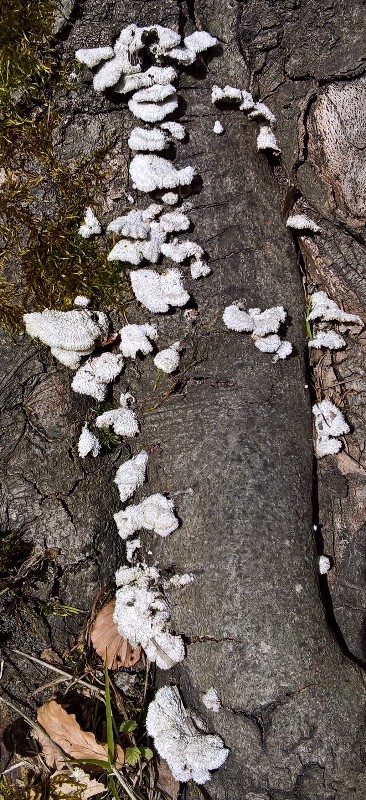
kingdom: Fungi
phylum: Basidiomycota
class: Agaricomycetes
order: Agaricales
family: Schizophyllaceae
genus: Schizophyllum
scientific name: Schizophyllum commune
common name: kløvblad
